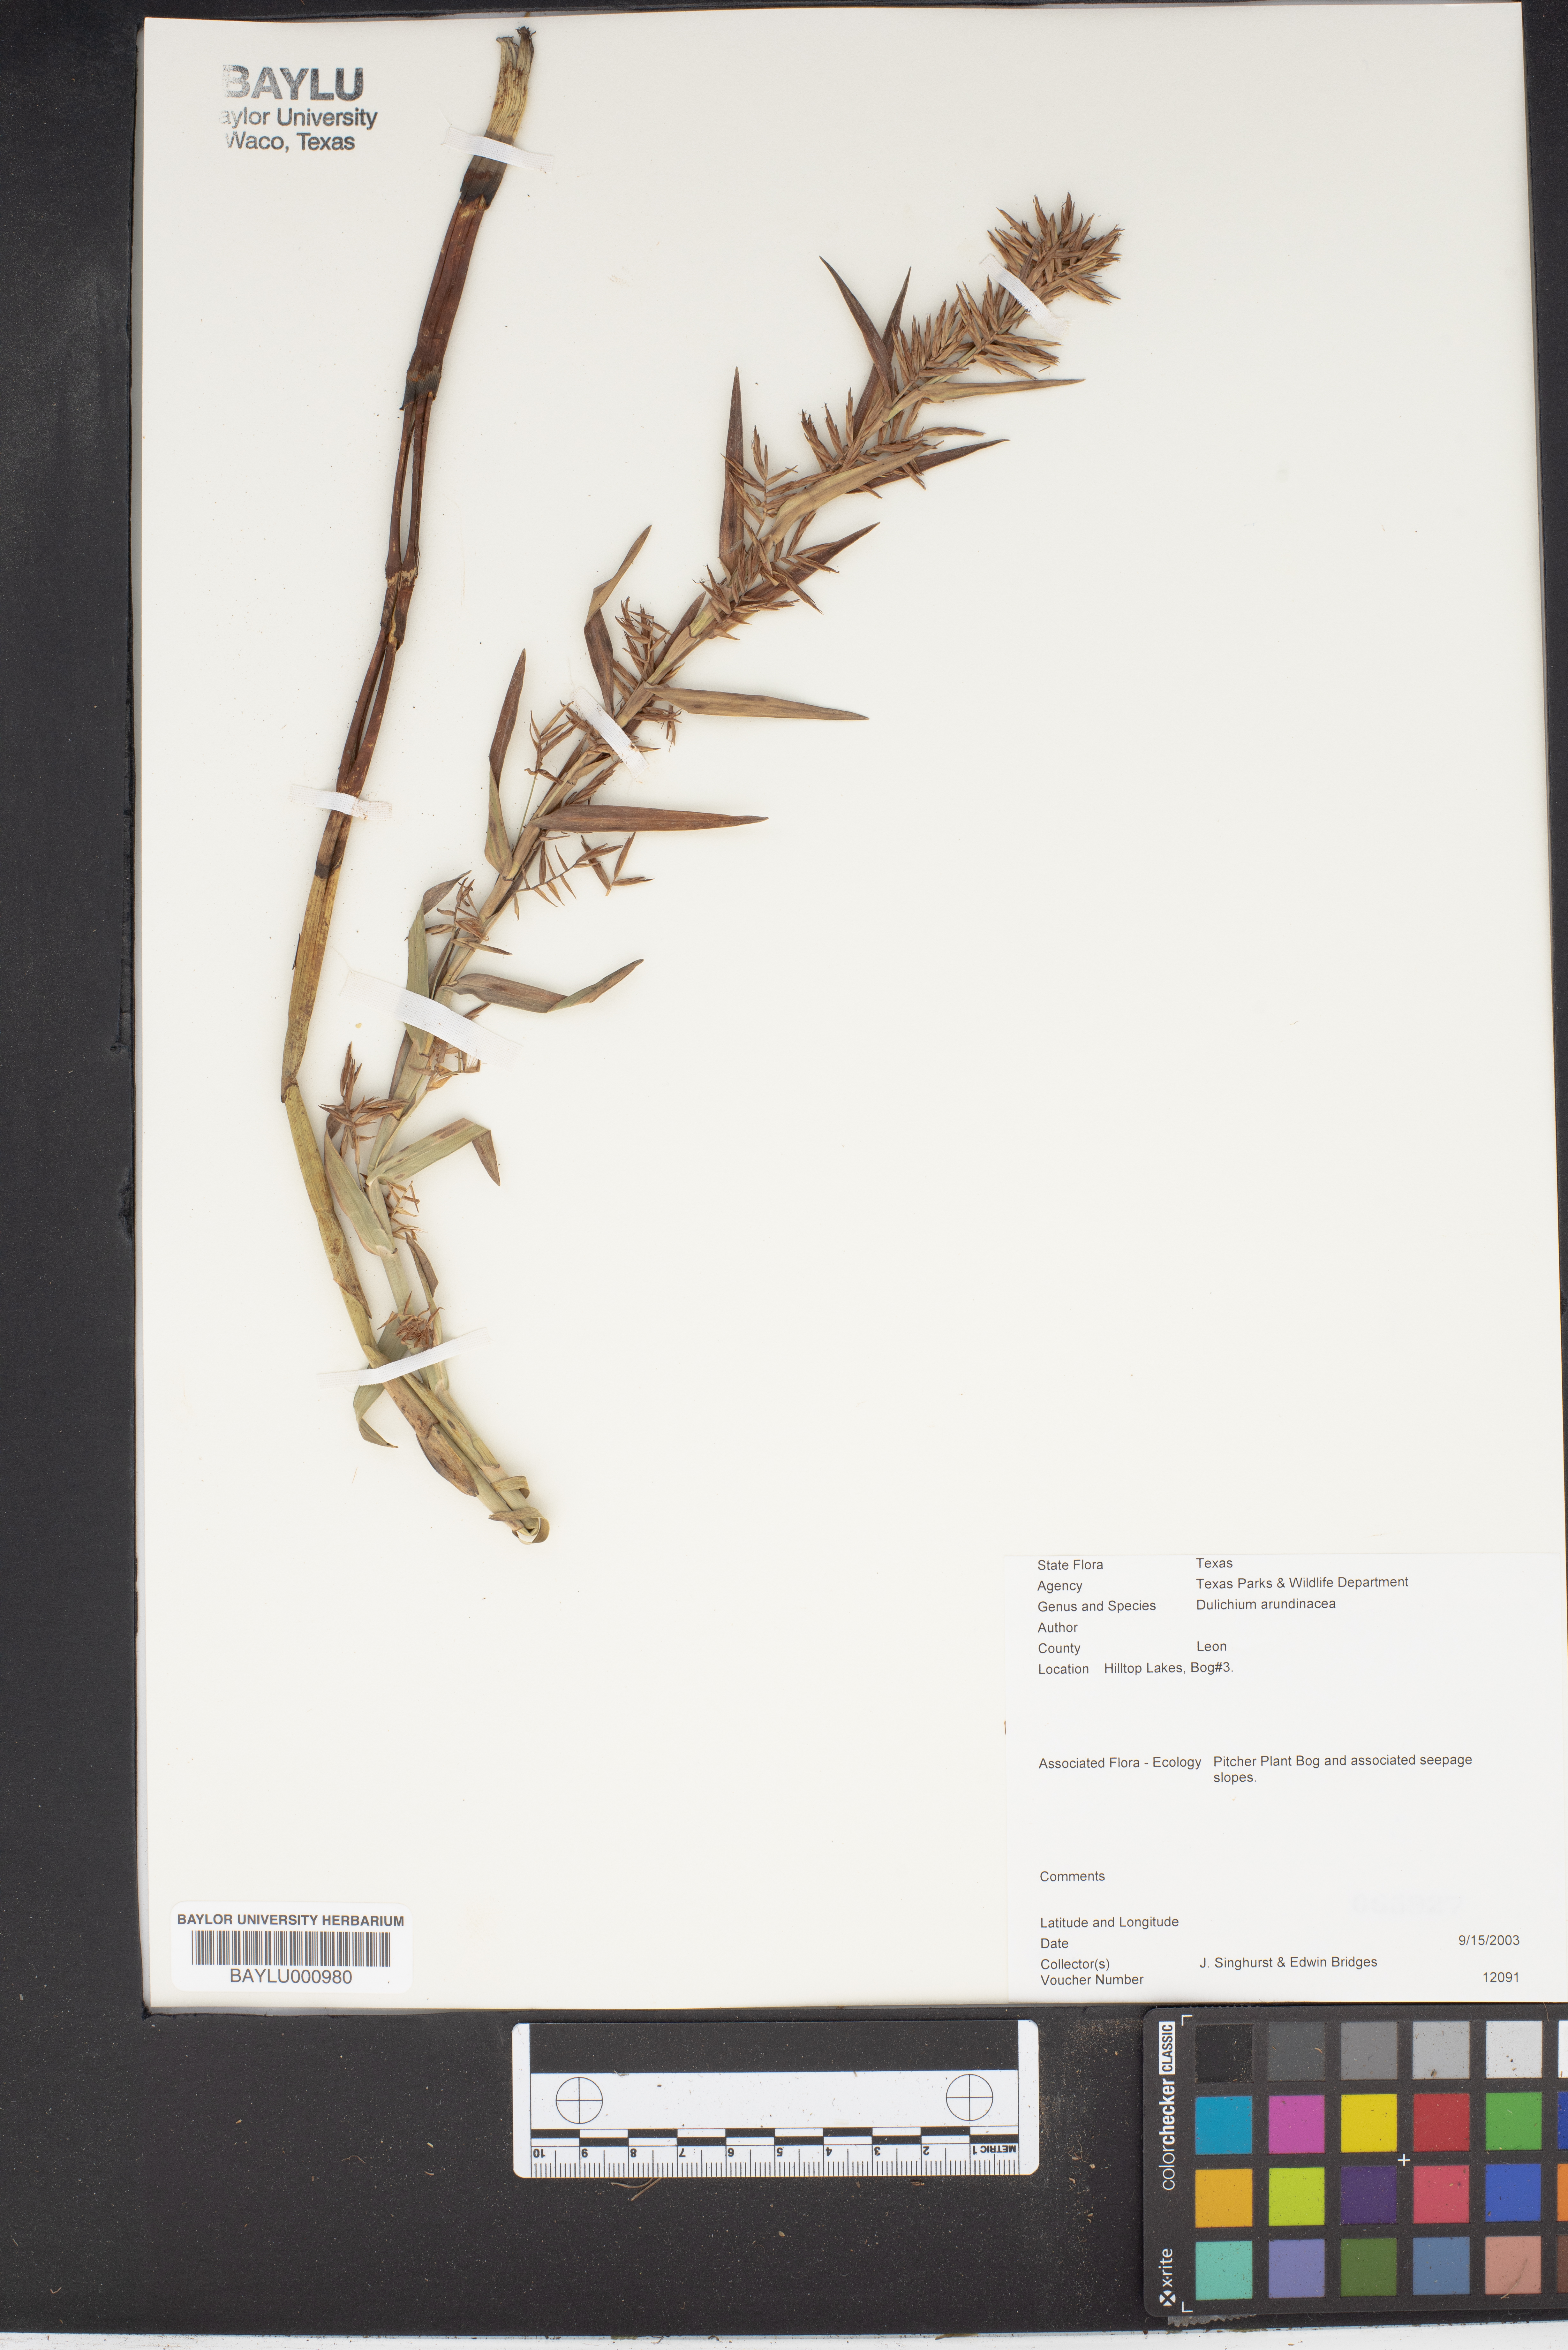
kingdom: Plantae
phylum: Tracheophyta
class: Liliopsida
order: Poales
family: Cyperaceae
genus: Dulichium
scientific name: Dulichium arundinaceum
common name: Three-way sedge
